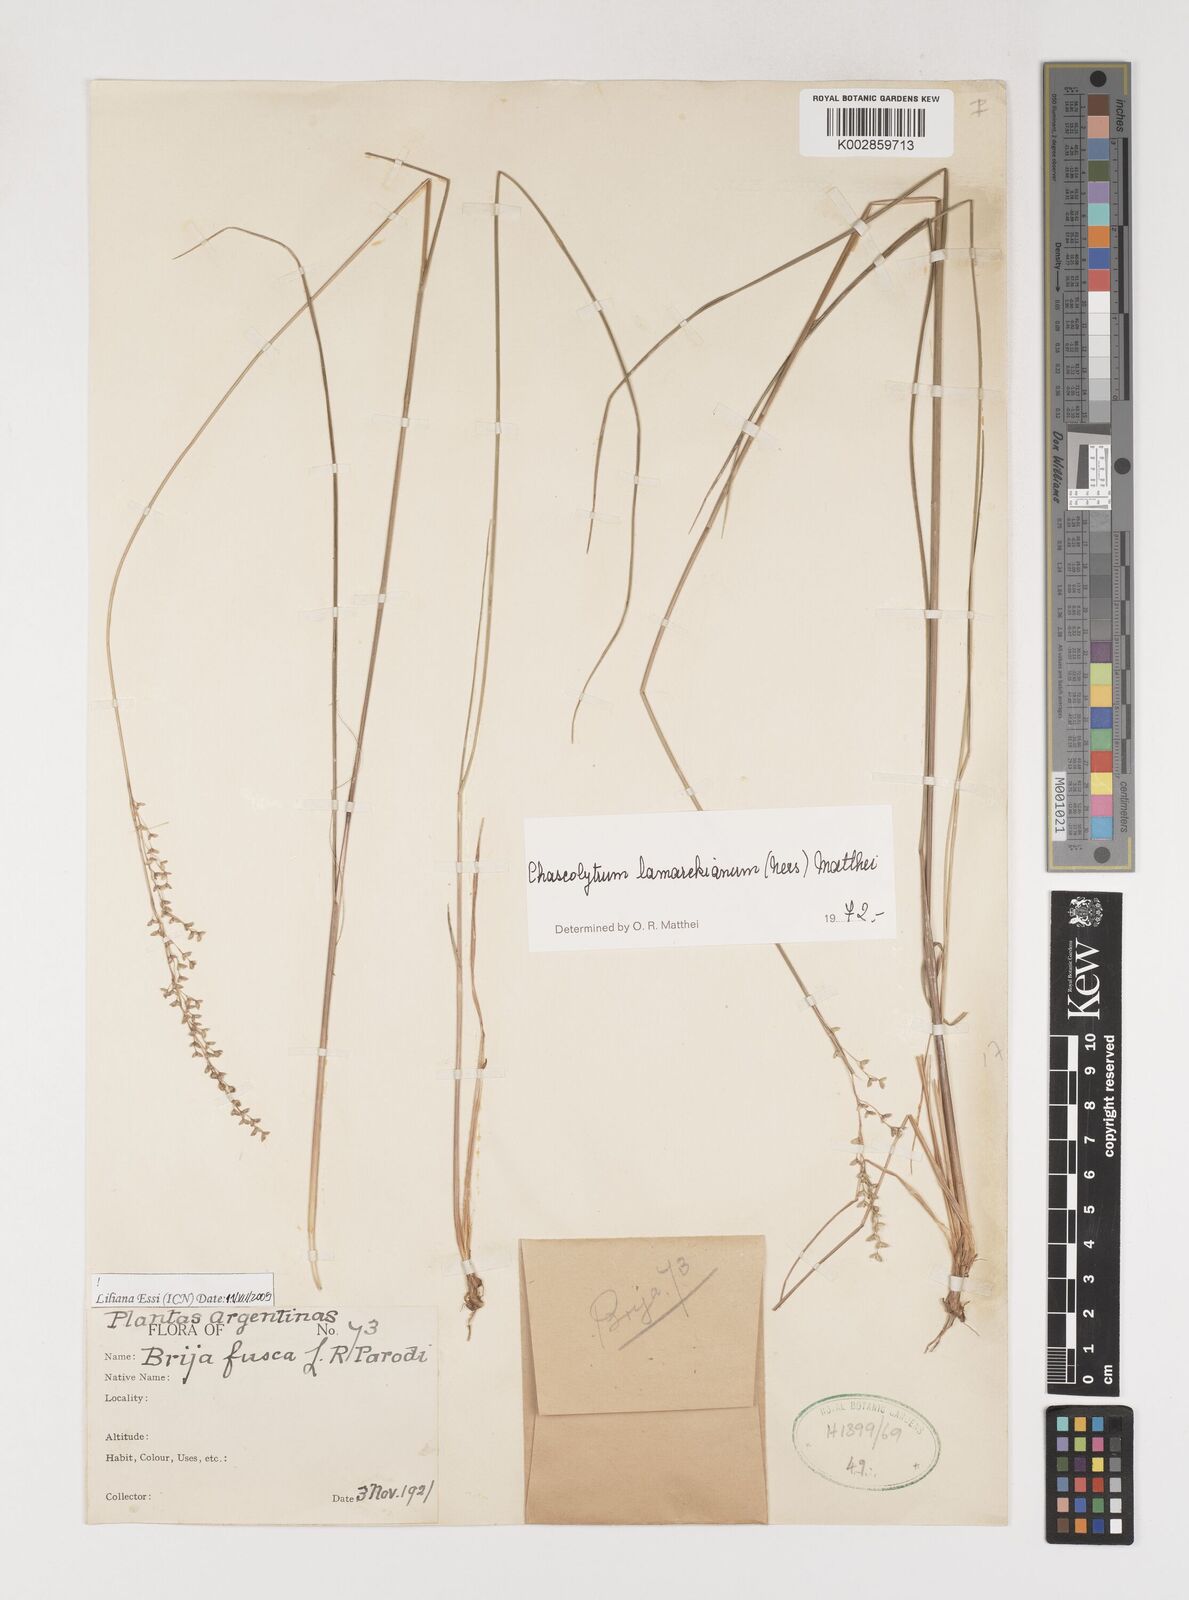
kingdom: Plantae
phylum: Tracheophyta
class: Liliopsida
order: Poales
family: Poaceae
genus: Chascolytrum
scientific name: Chascolytrum lamarckianum
